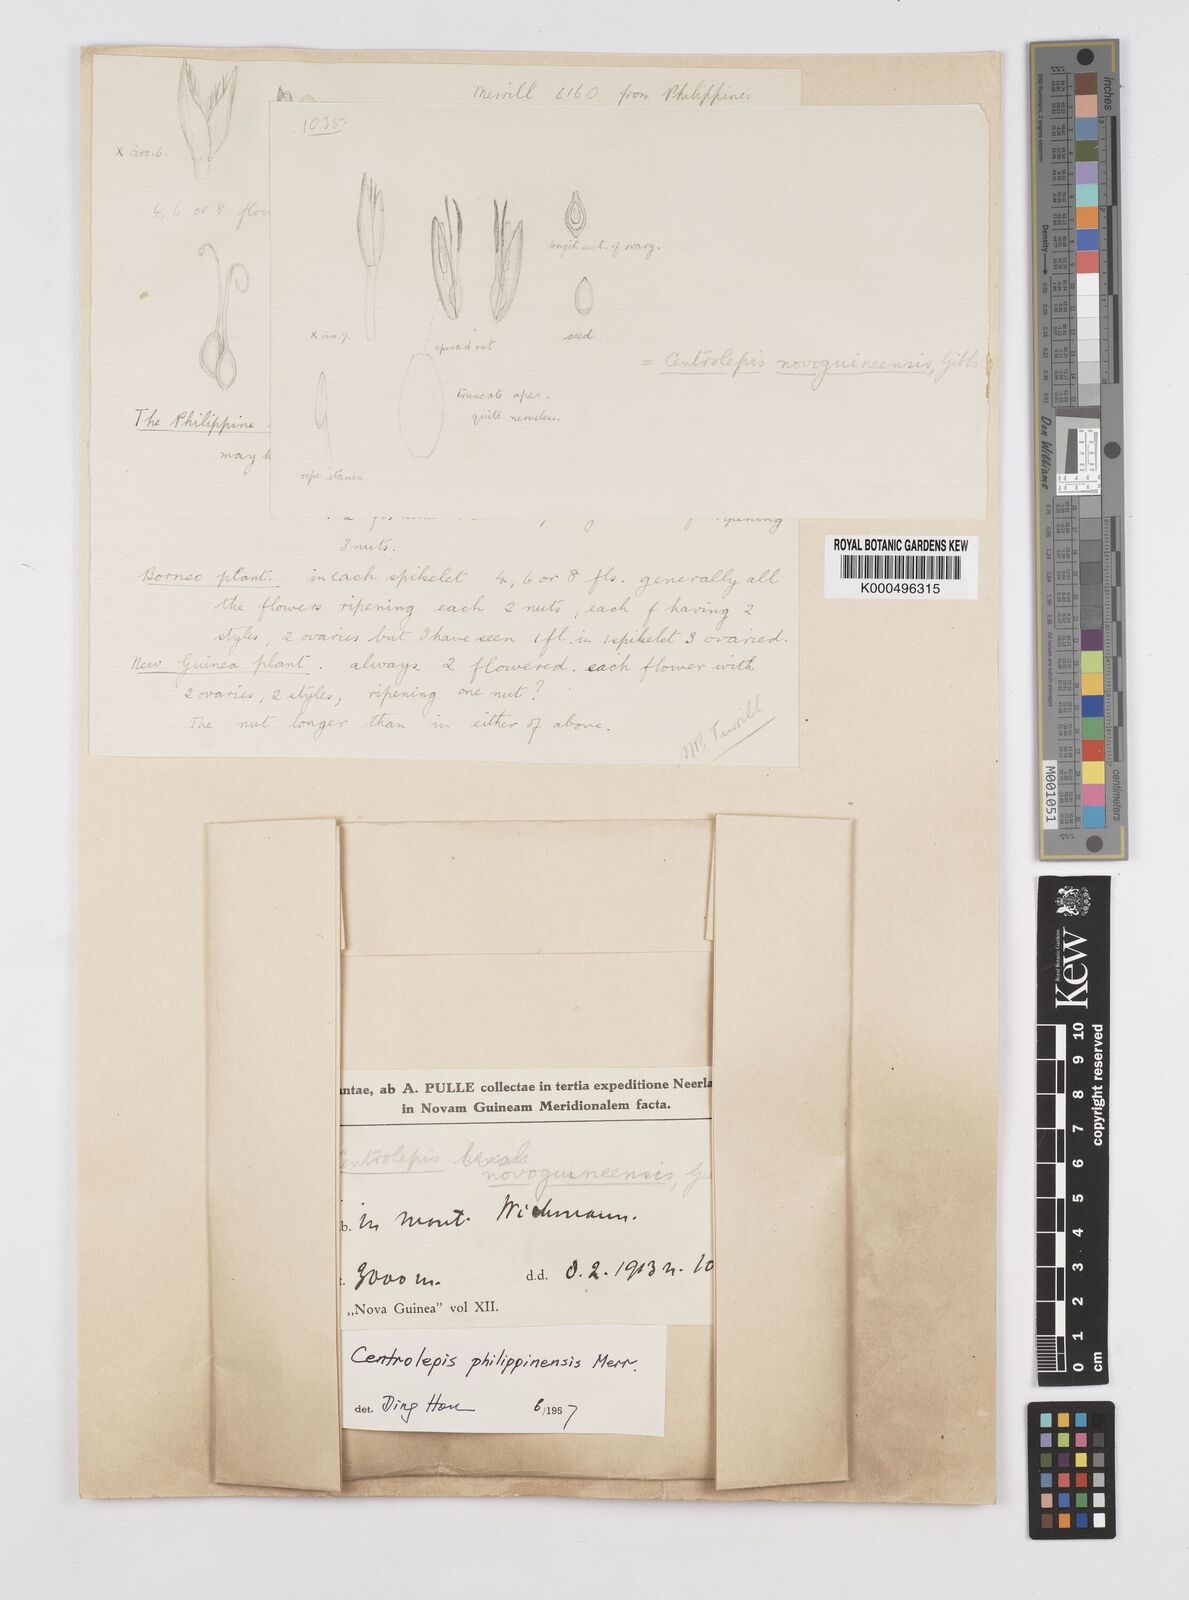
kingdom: Plantae
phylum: Tracheophyta
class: Liliopsida
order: Poales
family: Restionaceae
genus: Centrolepis
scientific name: Centrolepis philippinensis
